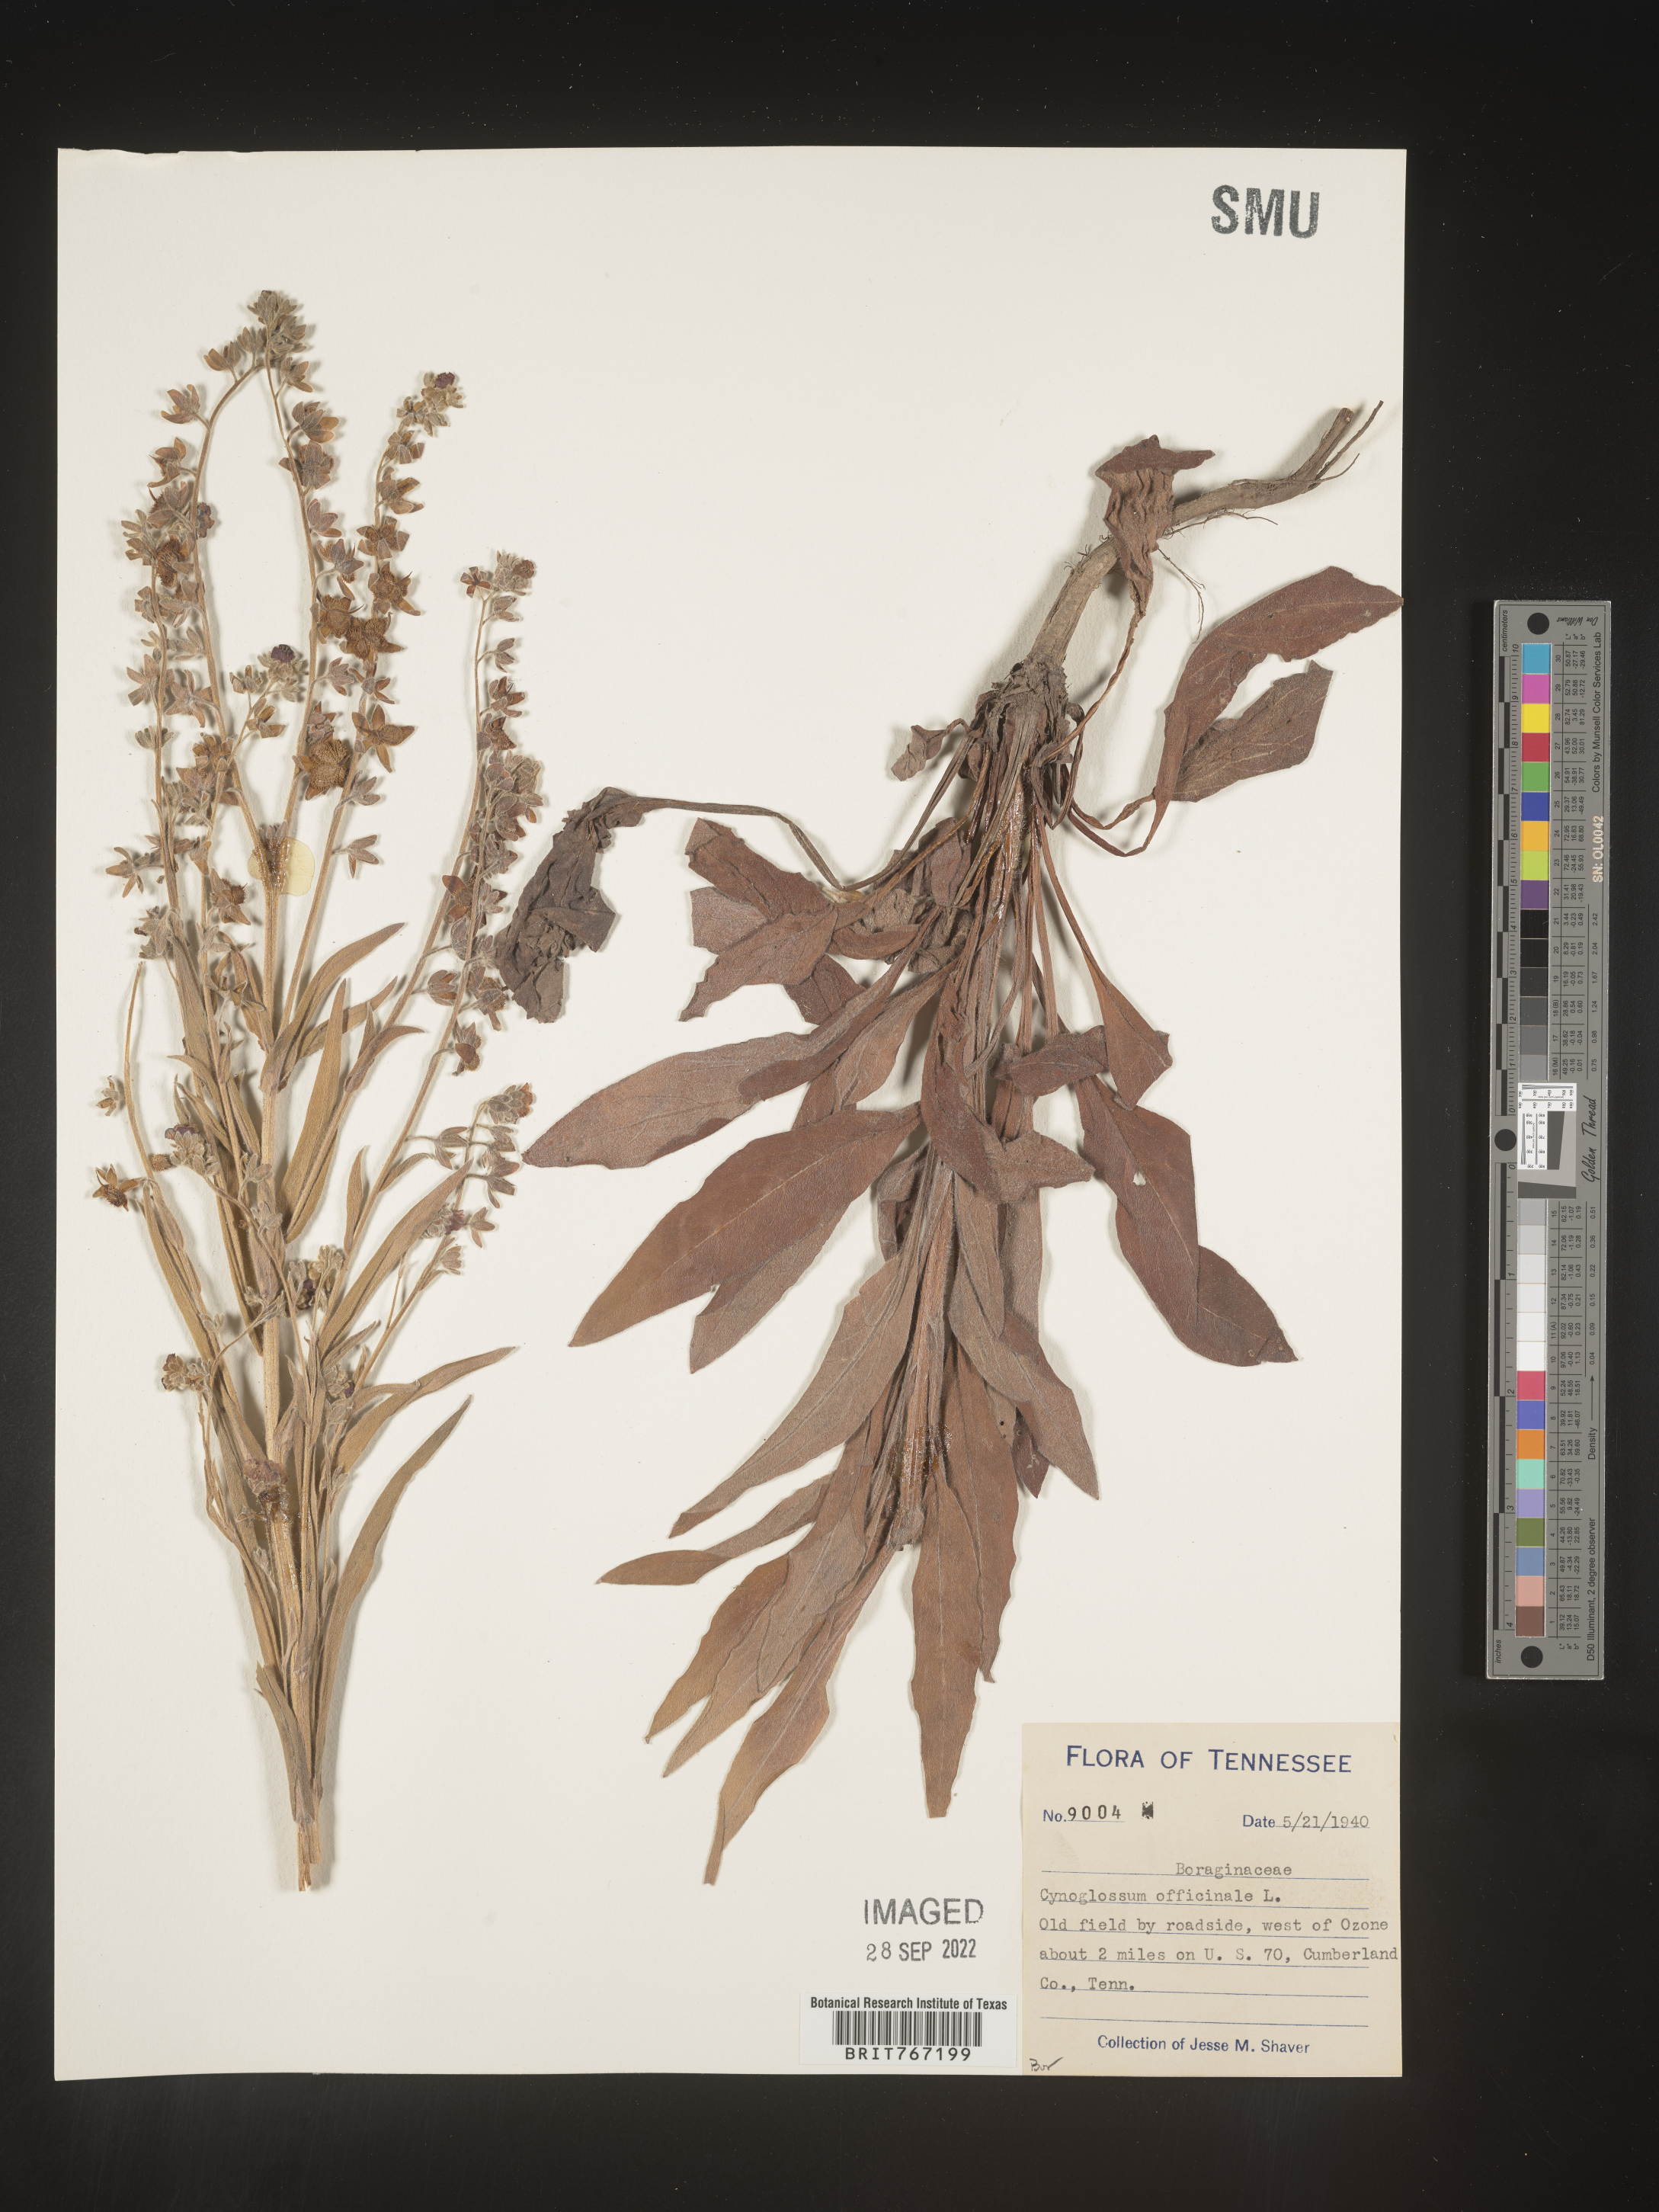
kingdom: Plantae
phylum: Tracheophyta
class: Magnoliopsida
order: Boraginales
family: Boraginaceae
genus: Cynoglossum
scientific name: Cynoglossum officinale
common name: Hound's-tongue
